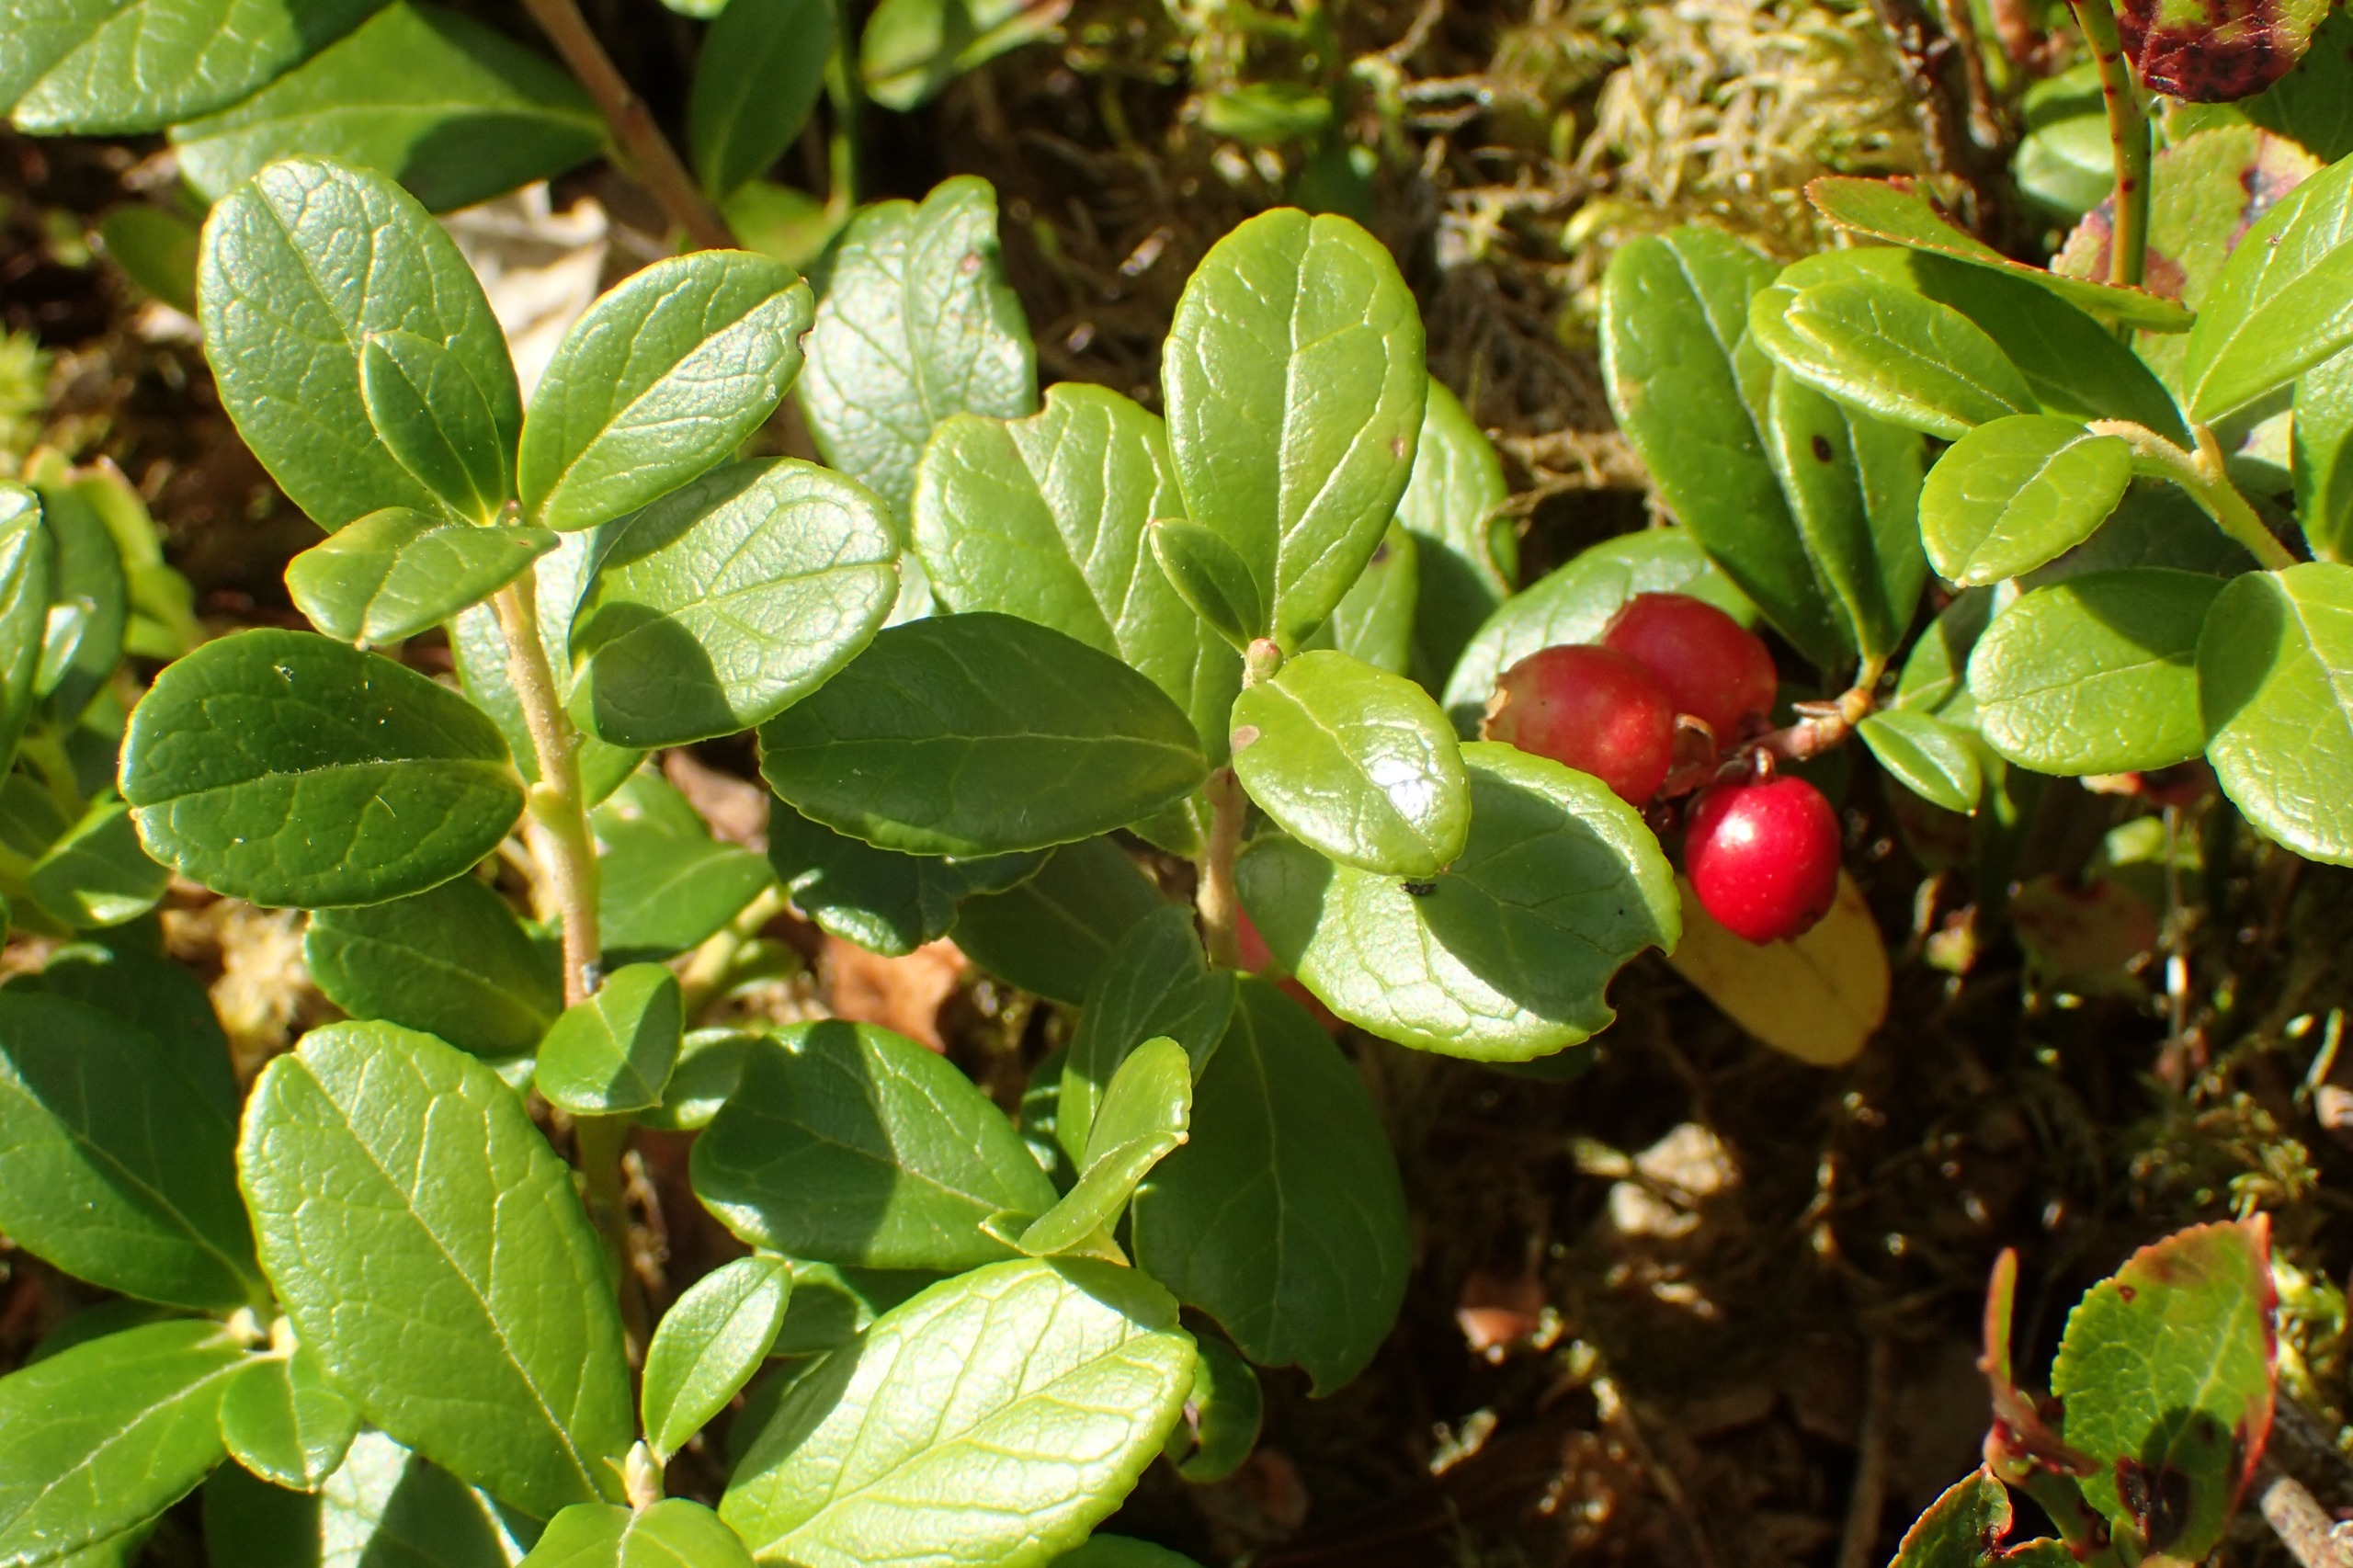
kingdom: Plantae
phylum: Tracheophyta
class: Magnoliopsida
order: Ericales
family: Ericaceae
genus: Vaccinium
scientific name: Vaccinium vitis-idaea
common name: Tyttebær
